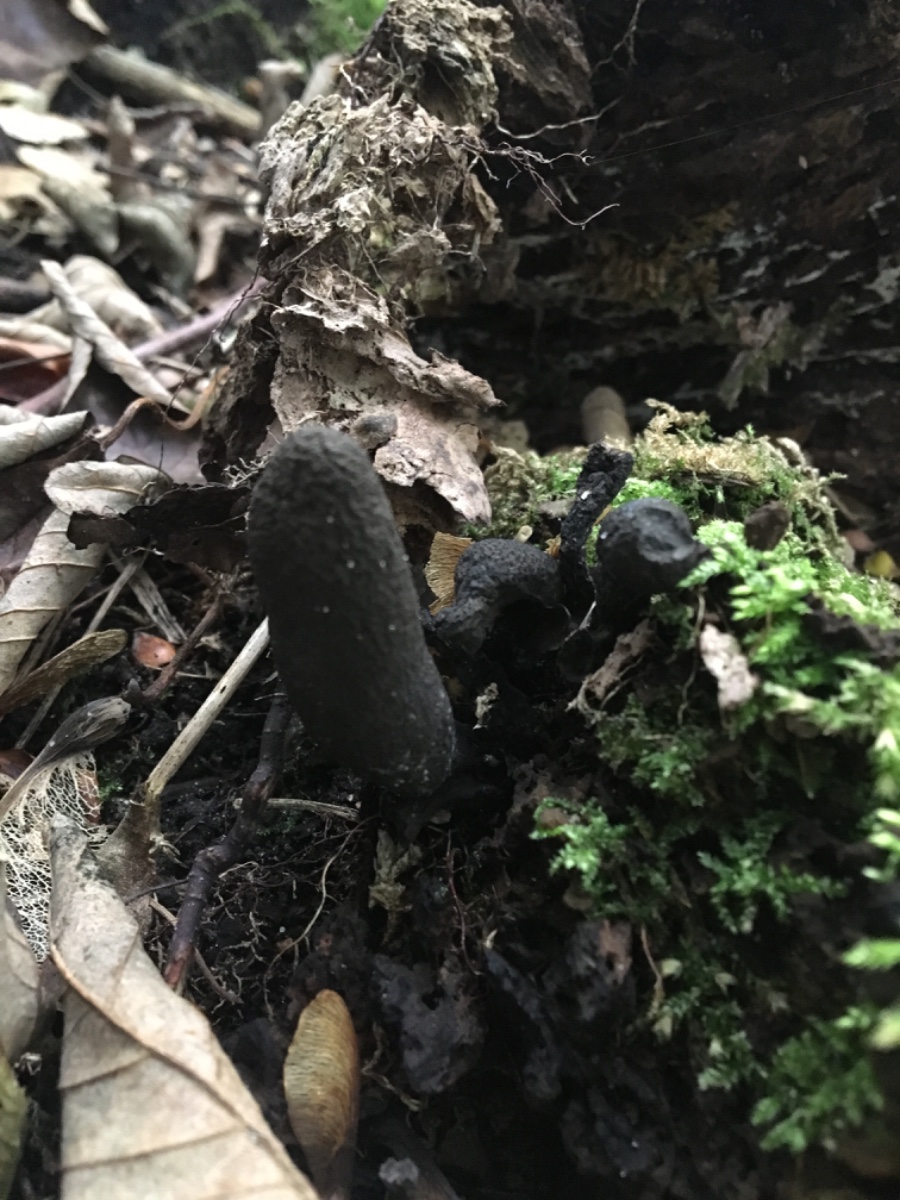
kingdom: Fungi
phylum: Ascomycota
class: Sordariomycetes
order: Xylariales
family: Xylariaceae
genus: Xylaria
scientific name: Xylaria polymorpha
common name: kølle-stødsvamp
